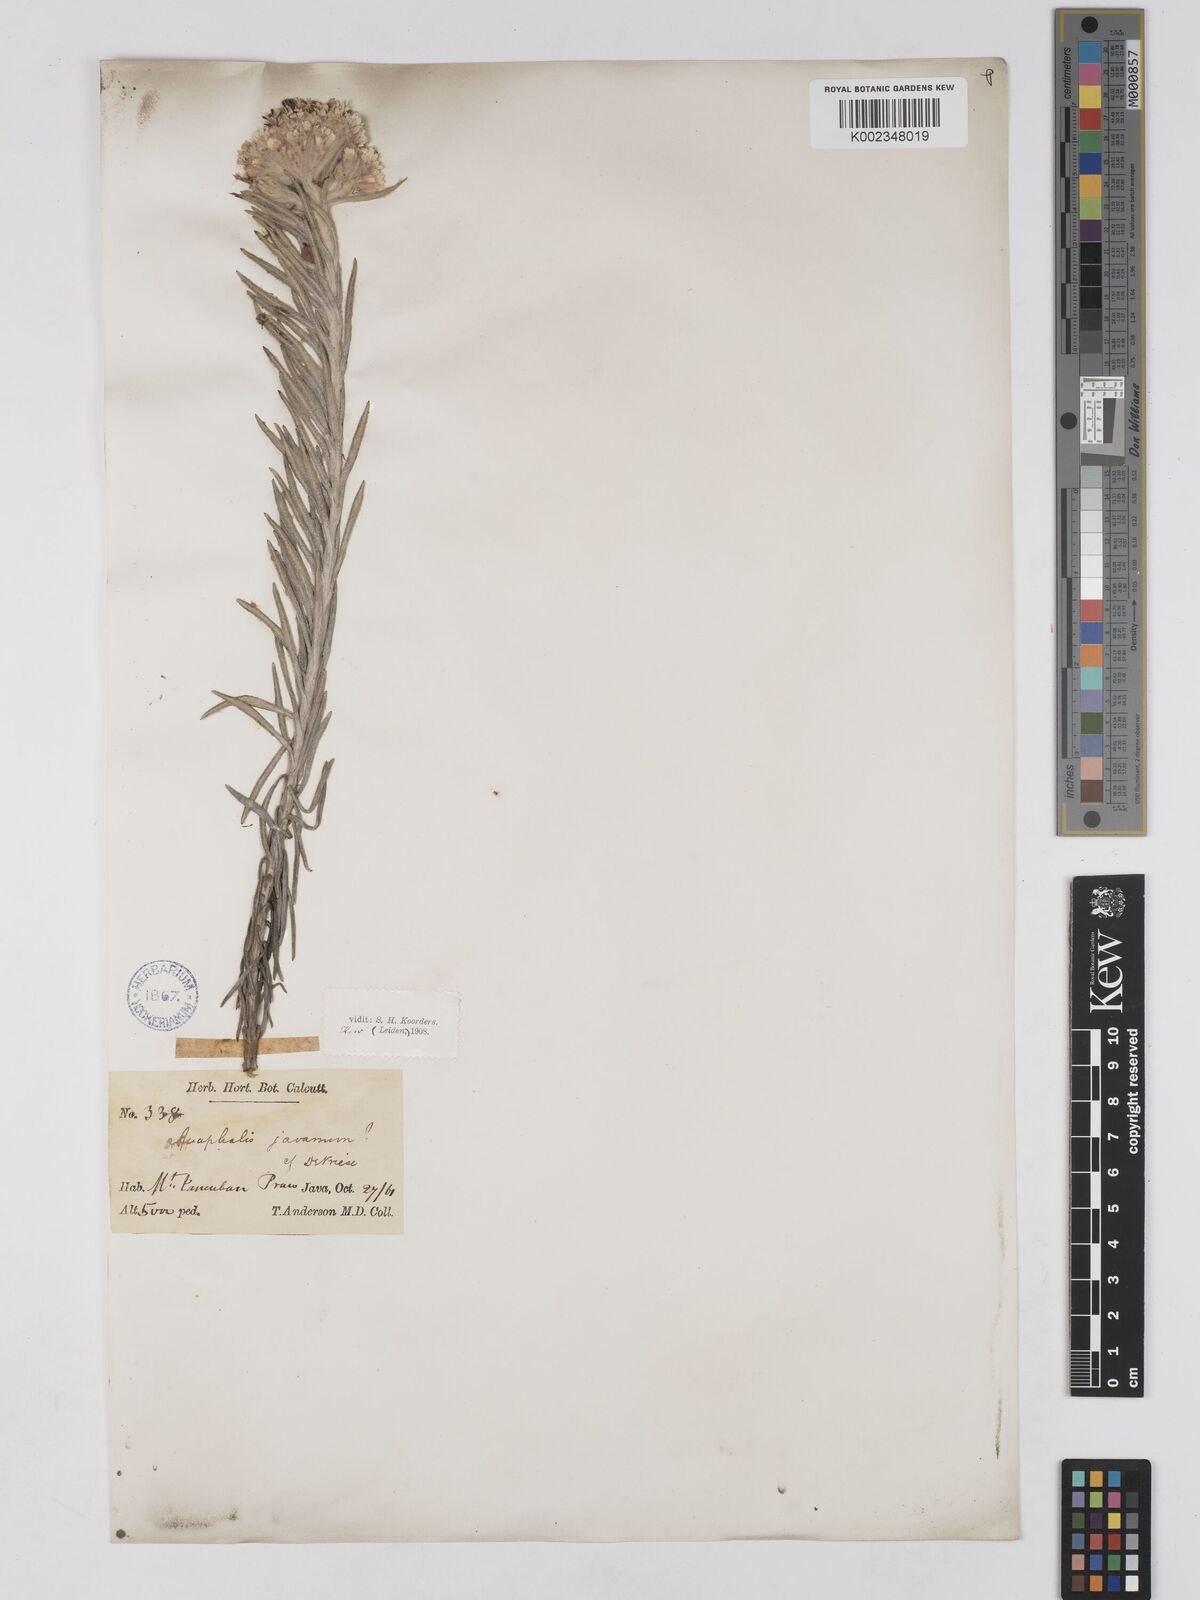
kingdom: Plantae
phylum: Tracheophyta
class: Magnoliopsida
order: Asterales
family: Asteraceae
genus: Anaphalis
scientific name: Anaphalis javanica
